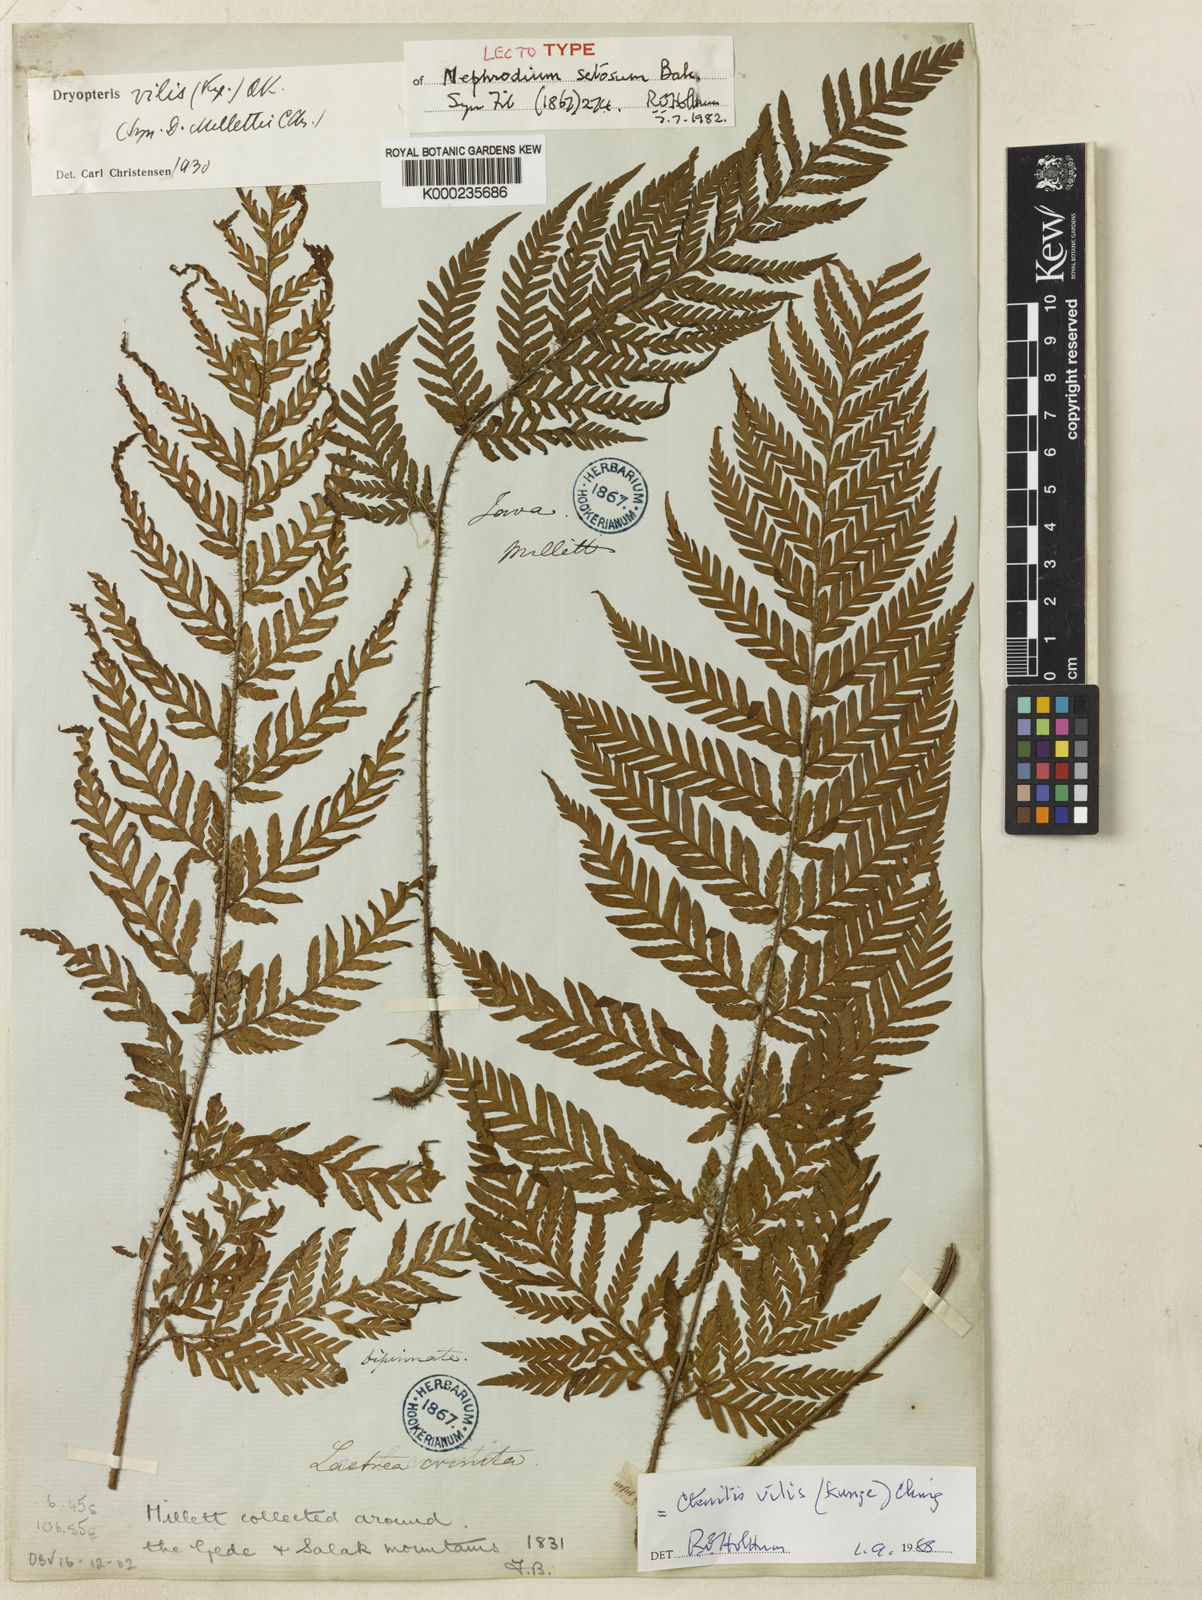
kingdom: Plantae
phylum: Tracheophyta
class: Polypodiopsida
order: Polypodiales
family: Dryopteridaceae
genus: Ctenitis
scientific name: Ctenitis vilis
